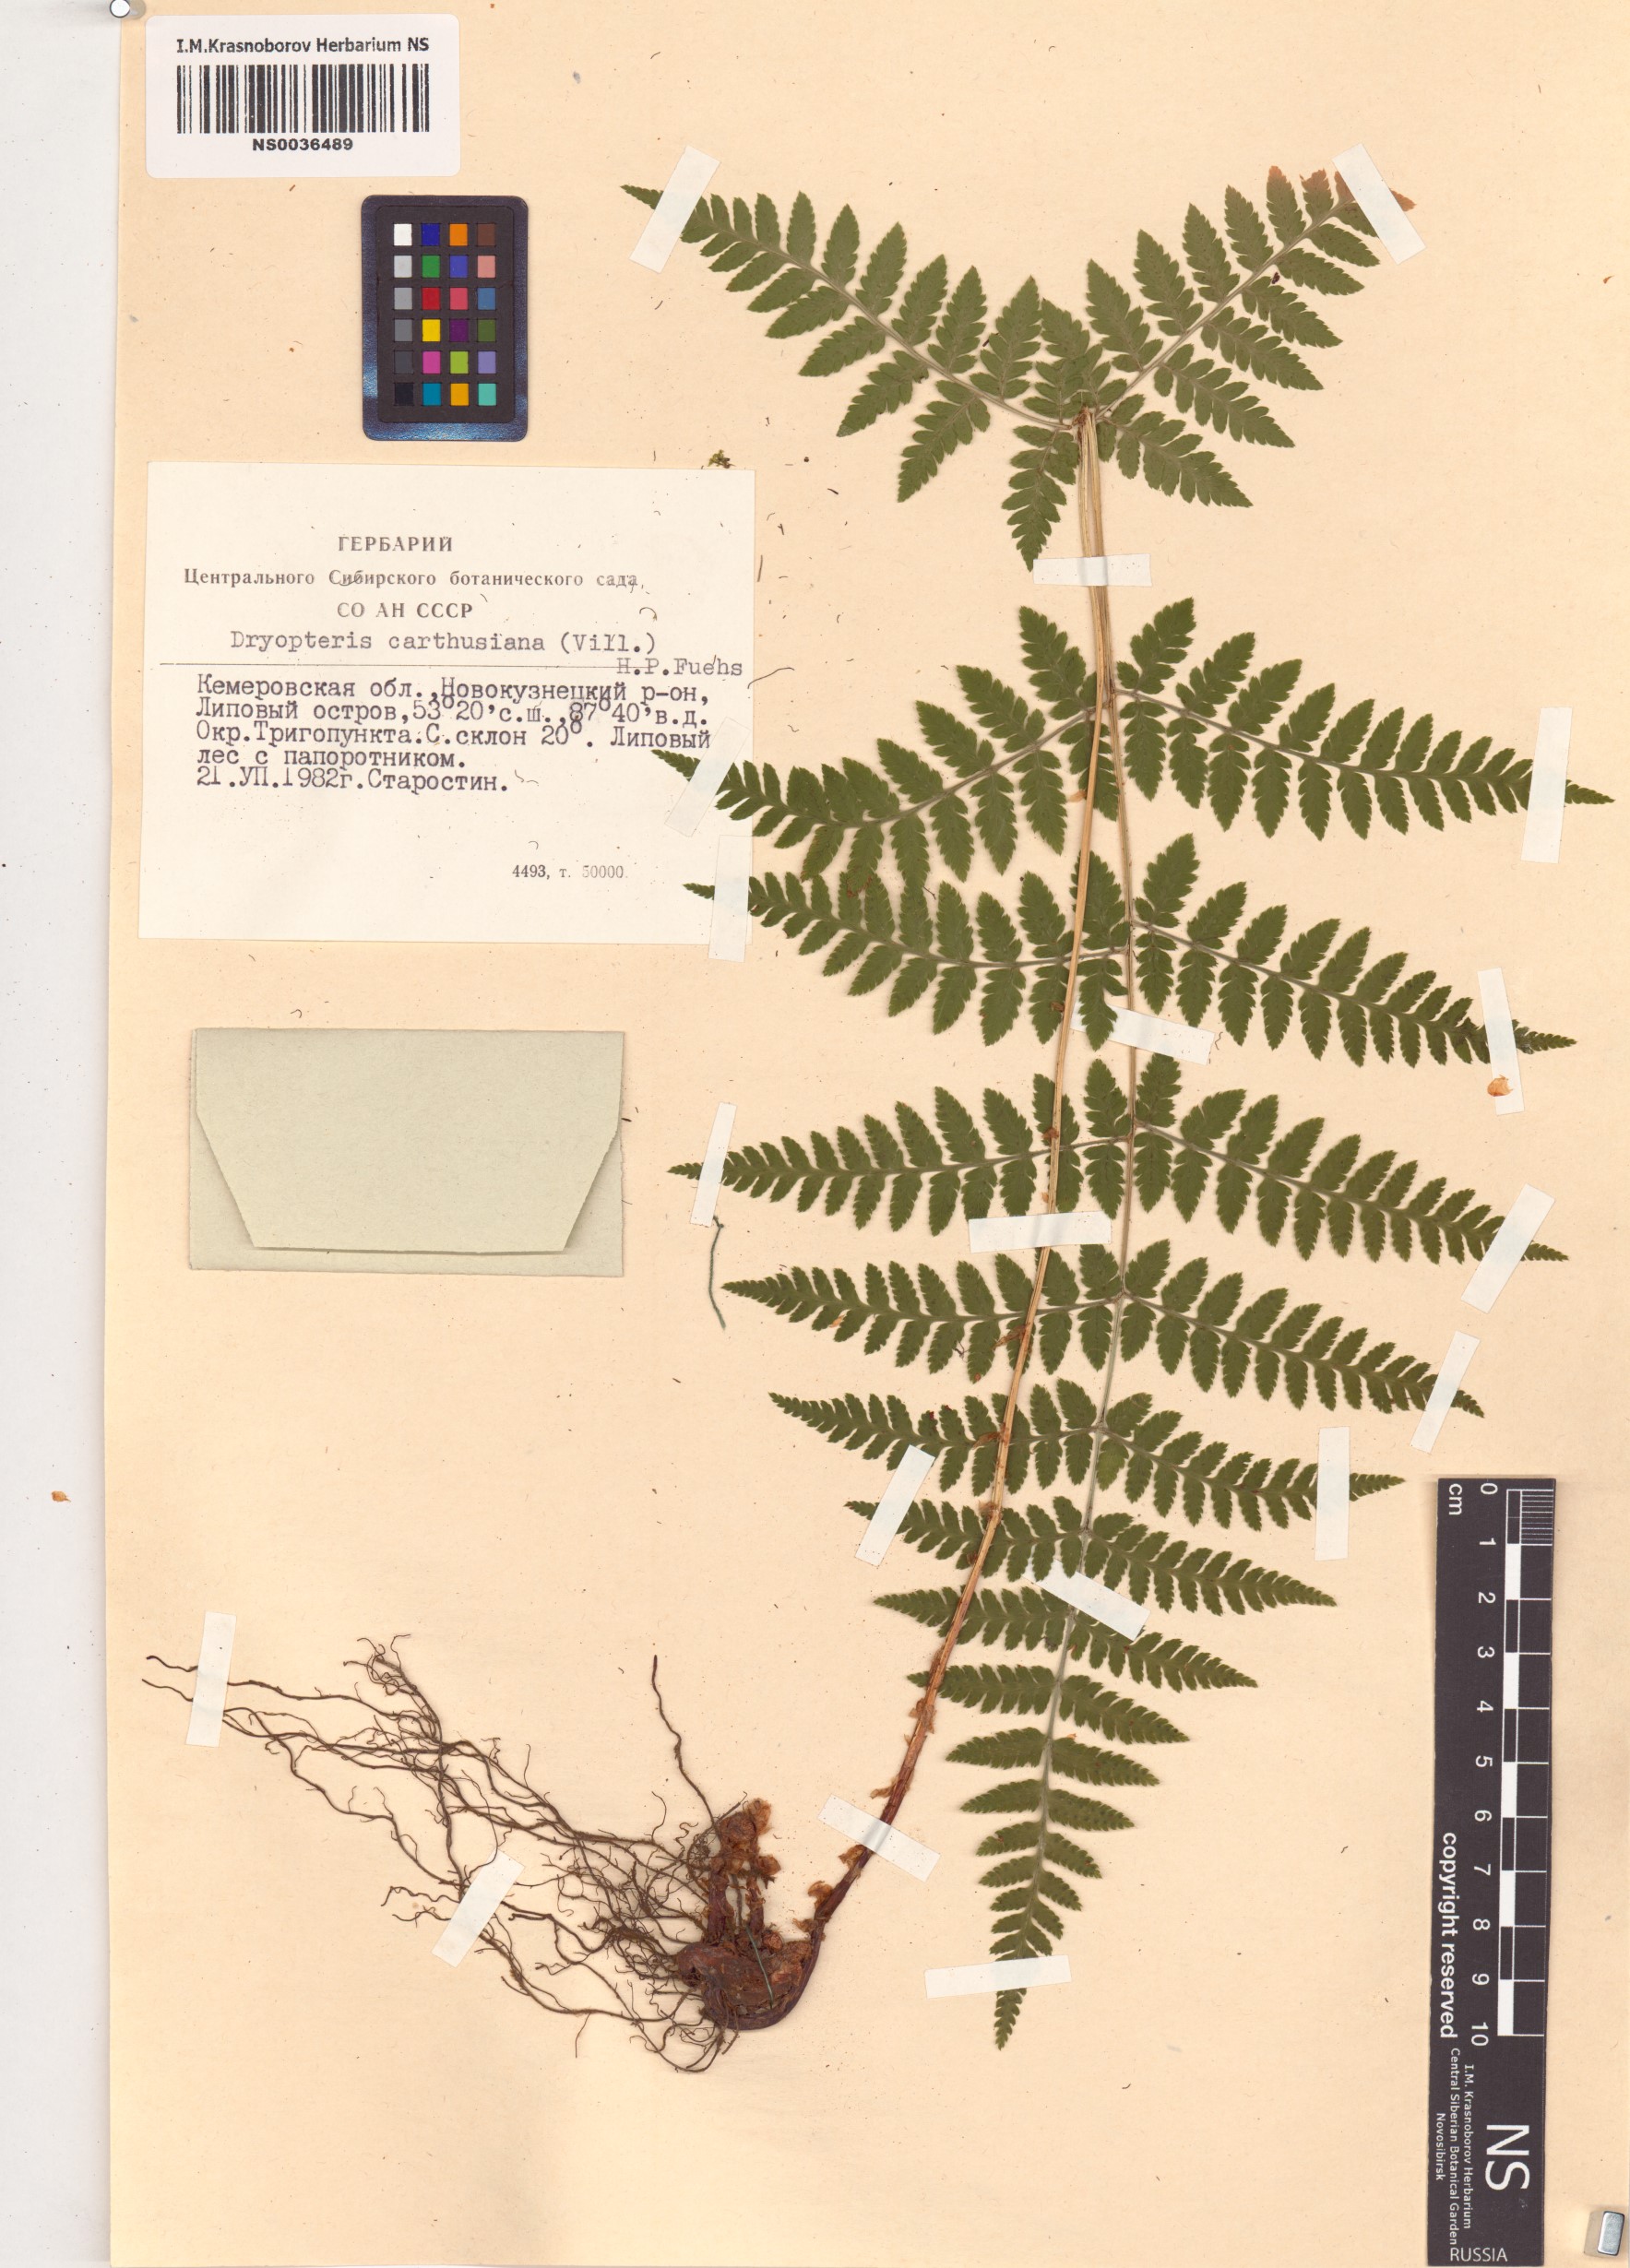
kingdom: Plantae
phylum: Tracheophyta
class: Polypodiopsida
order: Polypodiales
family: Dryopteridaceae
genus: Dryopteris
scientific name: Dryopteris carthusiana
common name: Narrow buckler-fern
